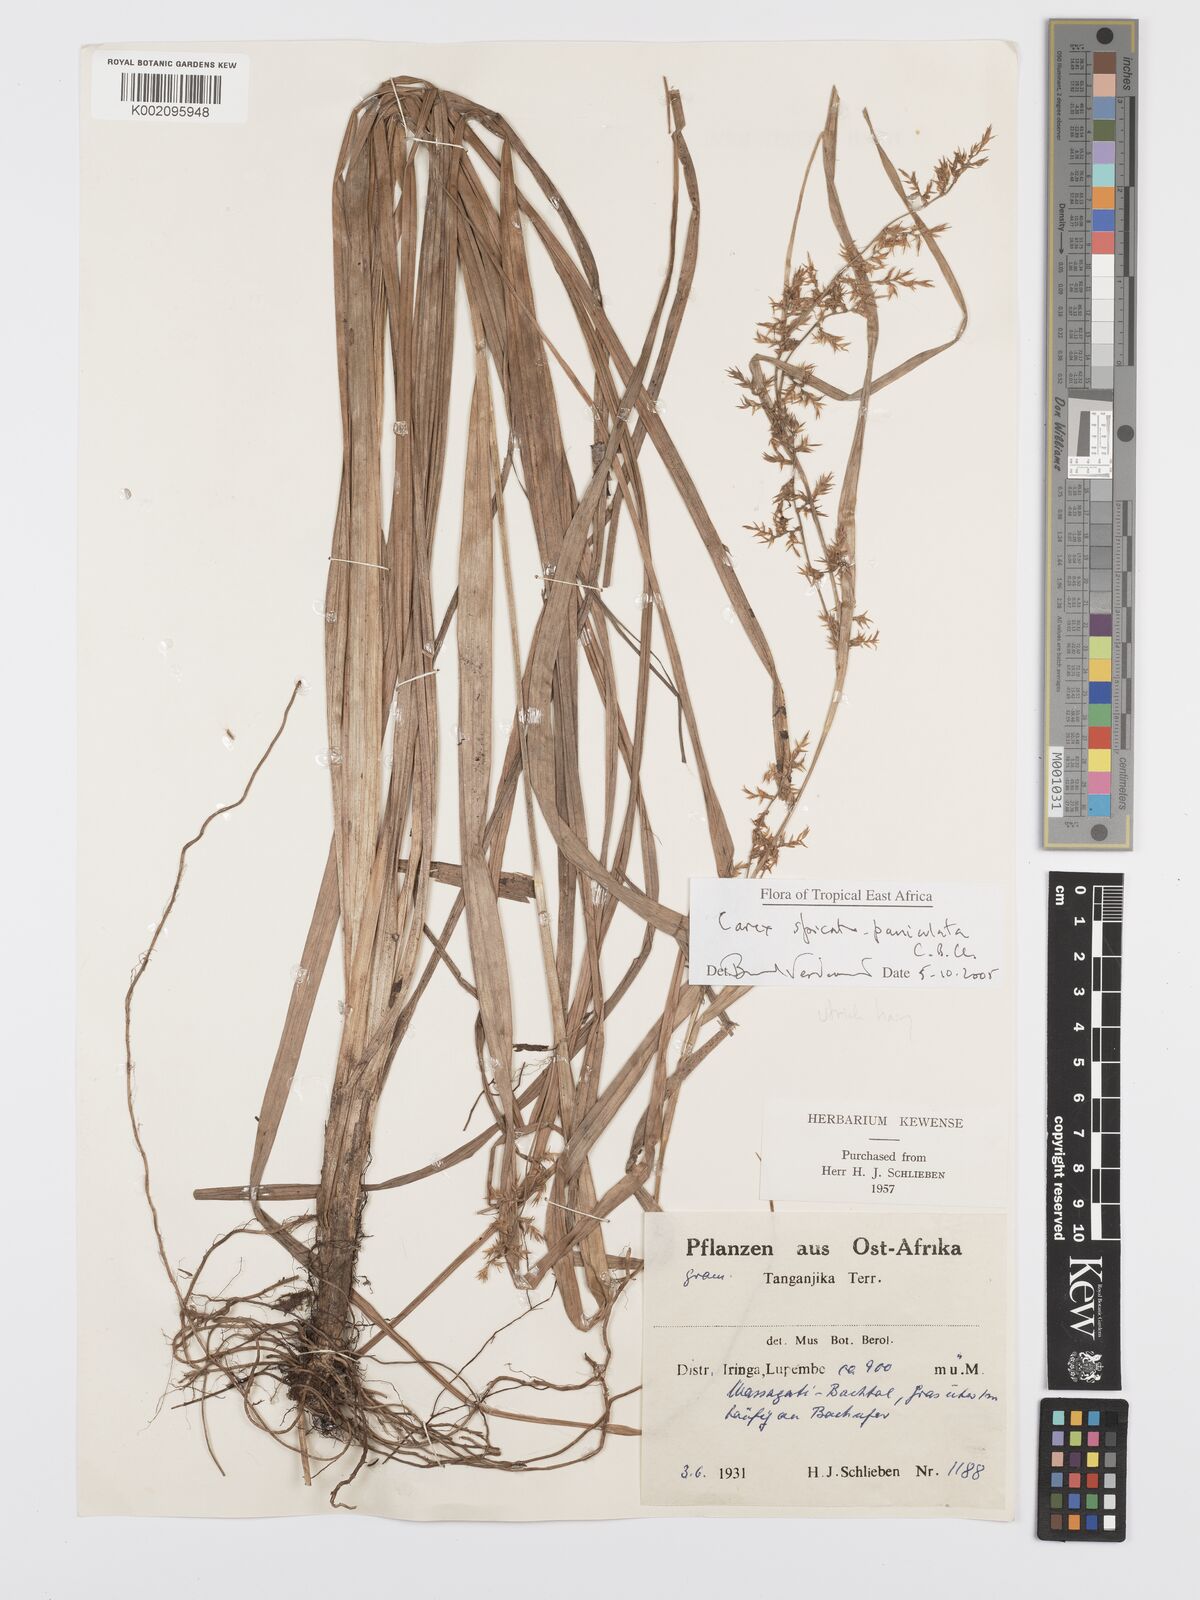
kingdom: Plantae
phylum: Tracheophyta
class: Liliopsida
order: Poales
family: Cyperaceae
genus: Carex
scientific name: Carex spicatopaniculata
